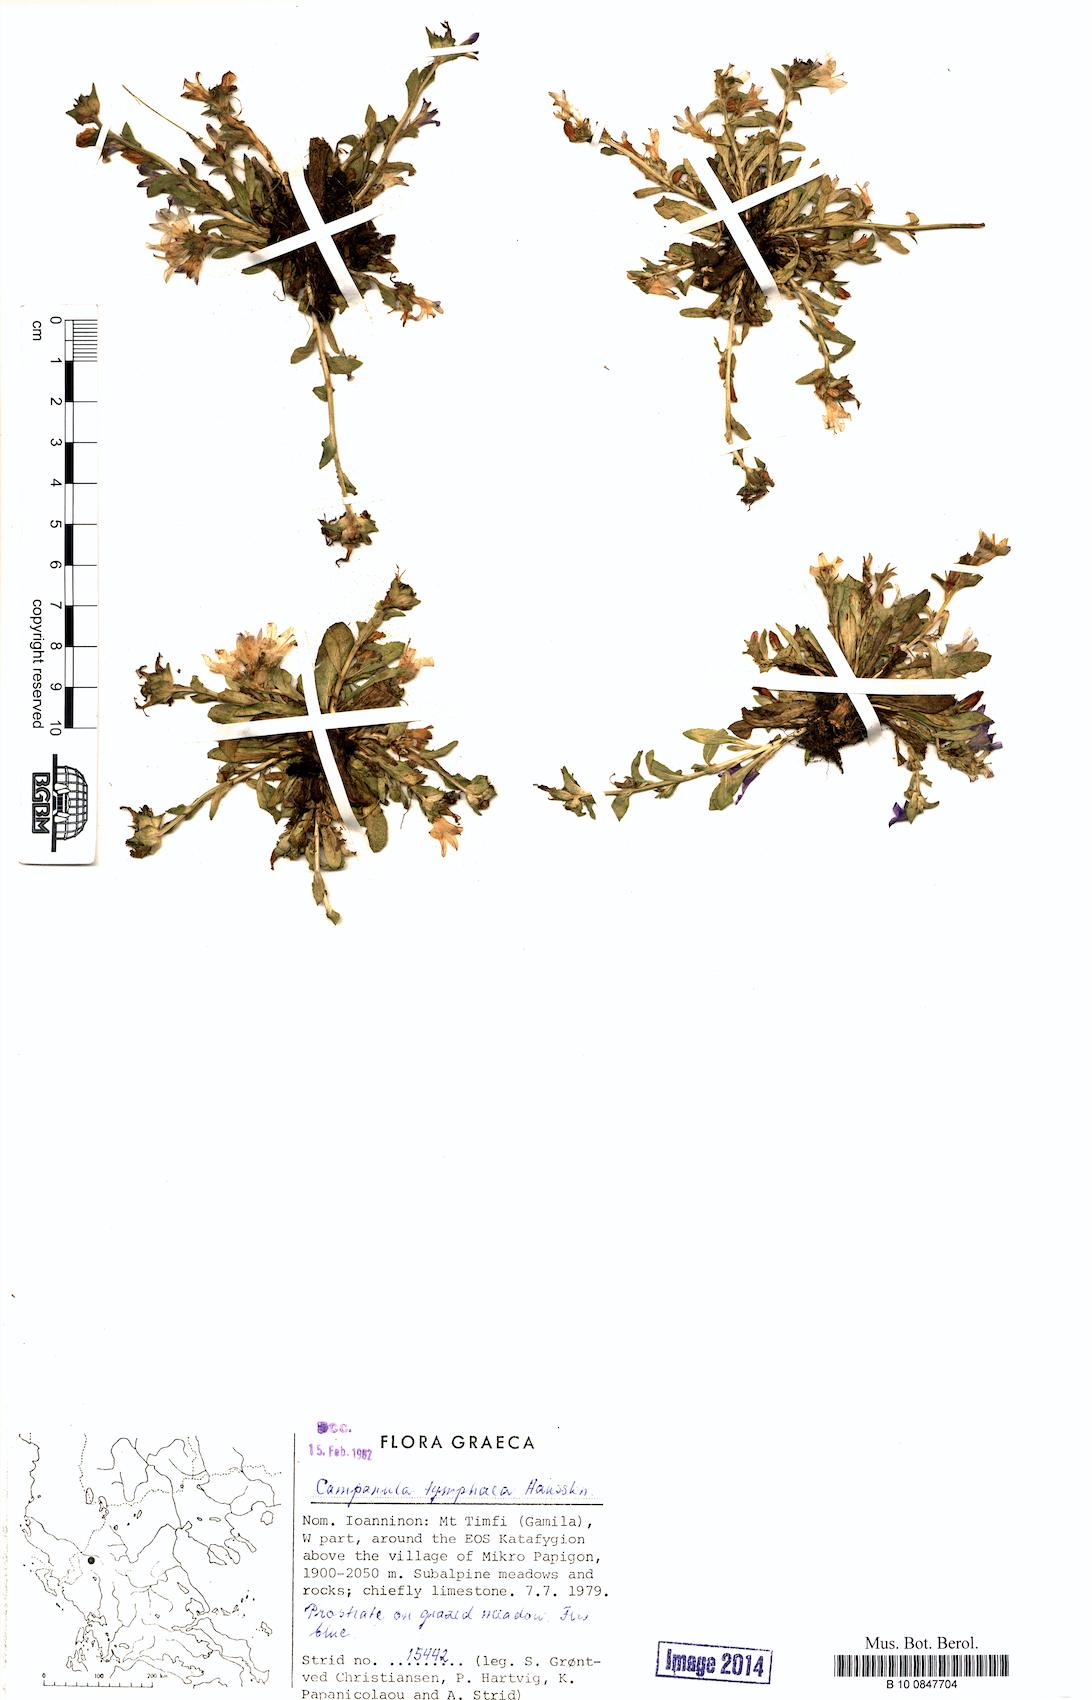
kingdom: Plantae
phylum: Tracheophyta
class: Magnoliopsida
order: Asterales
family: Campanulaceae
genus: Campanula
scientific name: Campanula tymphaea
